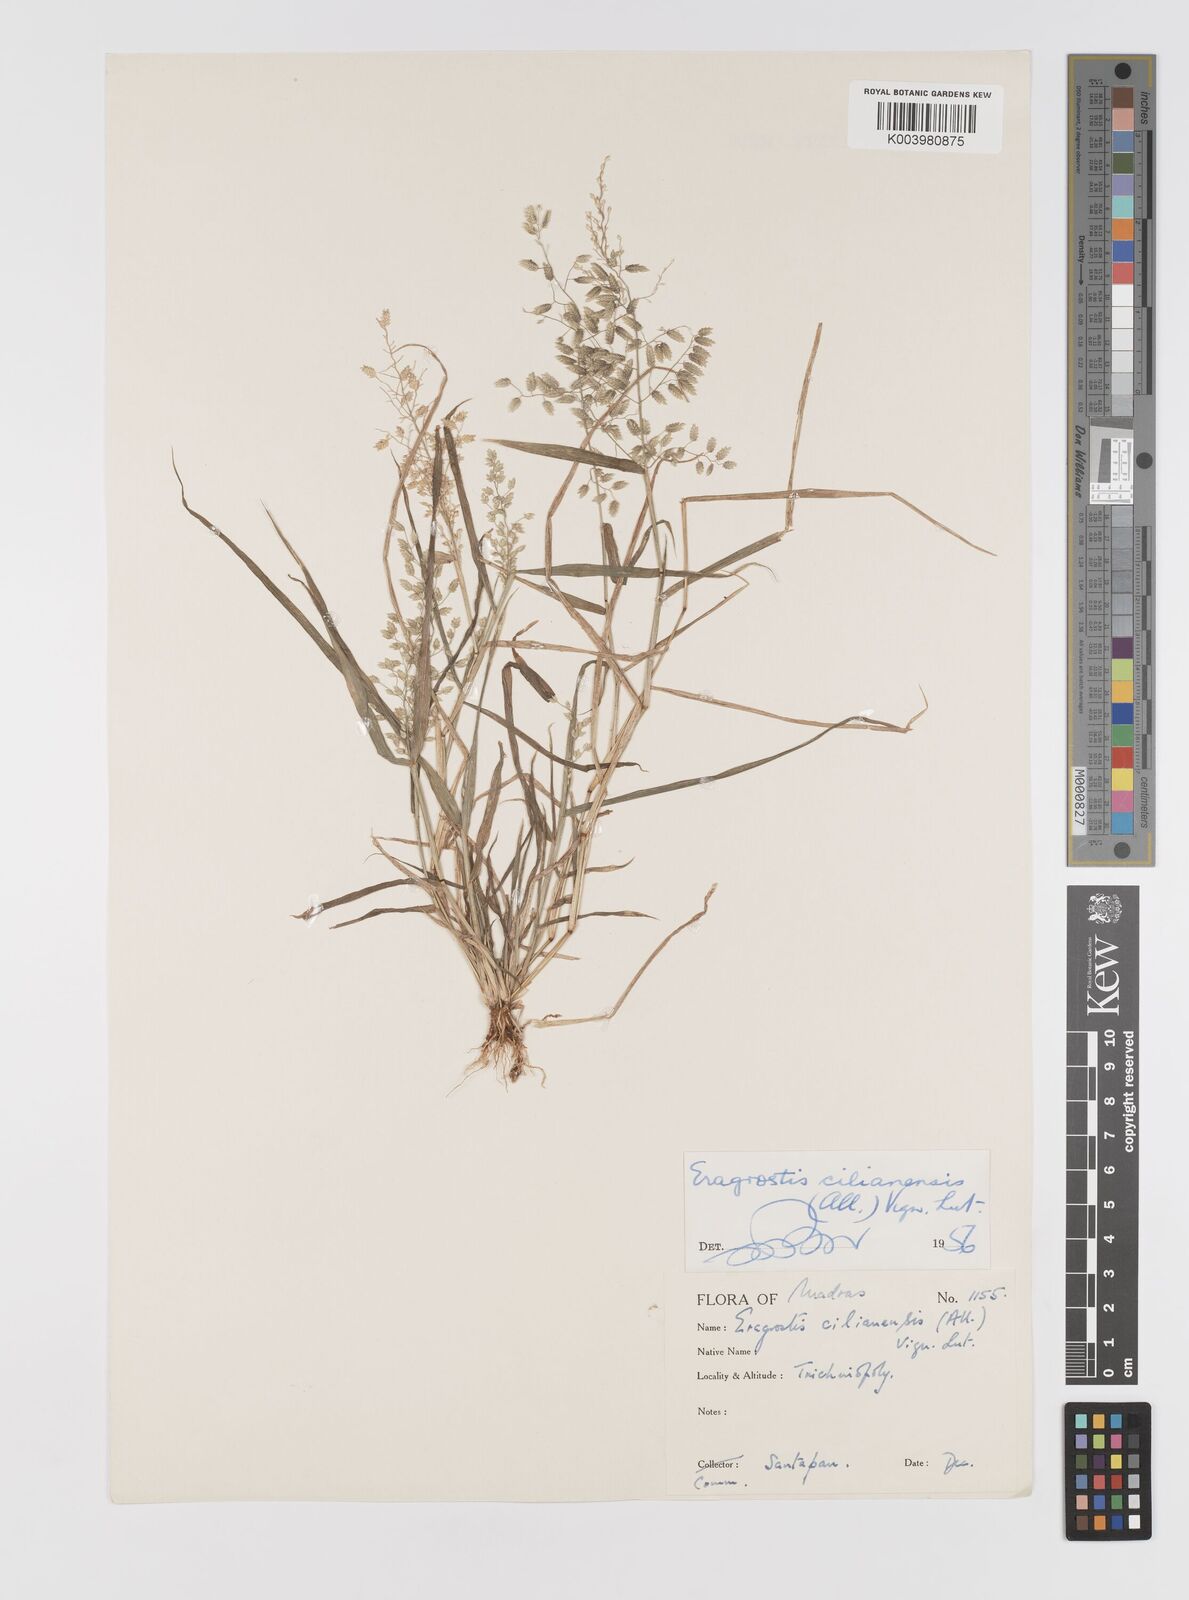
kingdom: Plantae
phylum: Tracheophyta
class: Liliopsida
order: Poales
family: Poaceae
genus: Eragrostis
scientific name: Eragrostis cilianensis
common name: Stinkgrass
